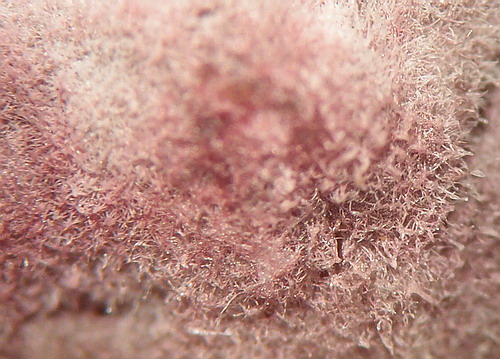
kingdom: Fungi
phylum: Basidiomycota
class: Agaricomycetes
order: Russulales
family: Peniophoraceae
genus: Gloiothele
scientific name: Gloiothele lactescens
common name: bitter olieskind
